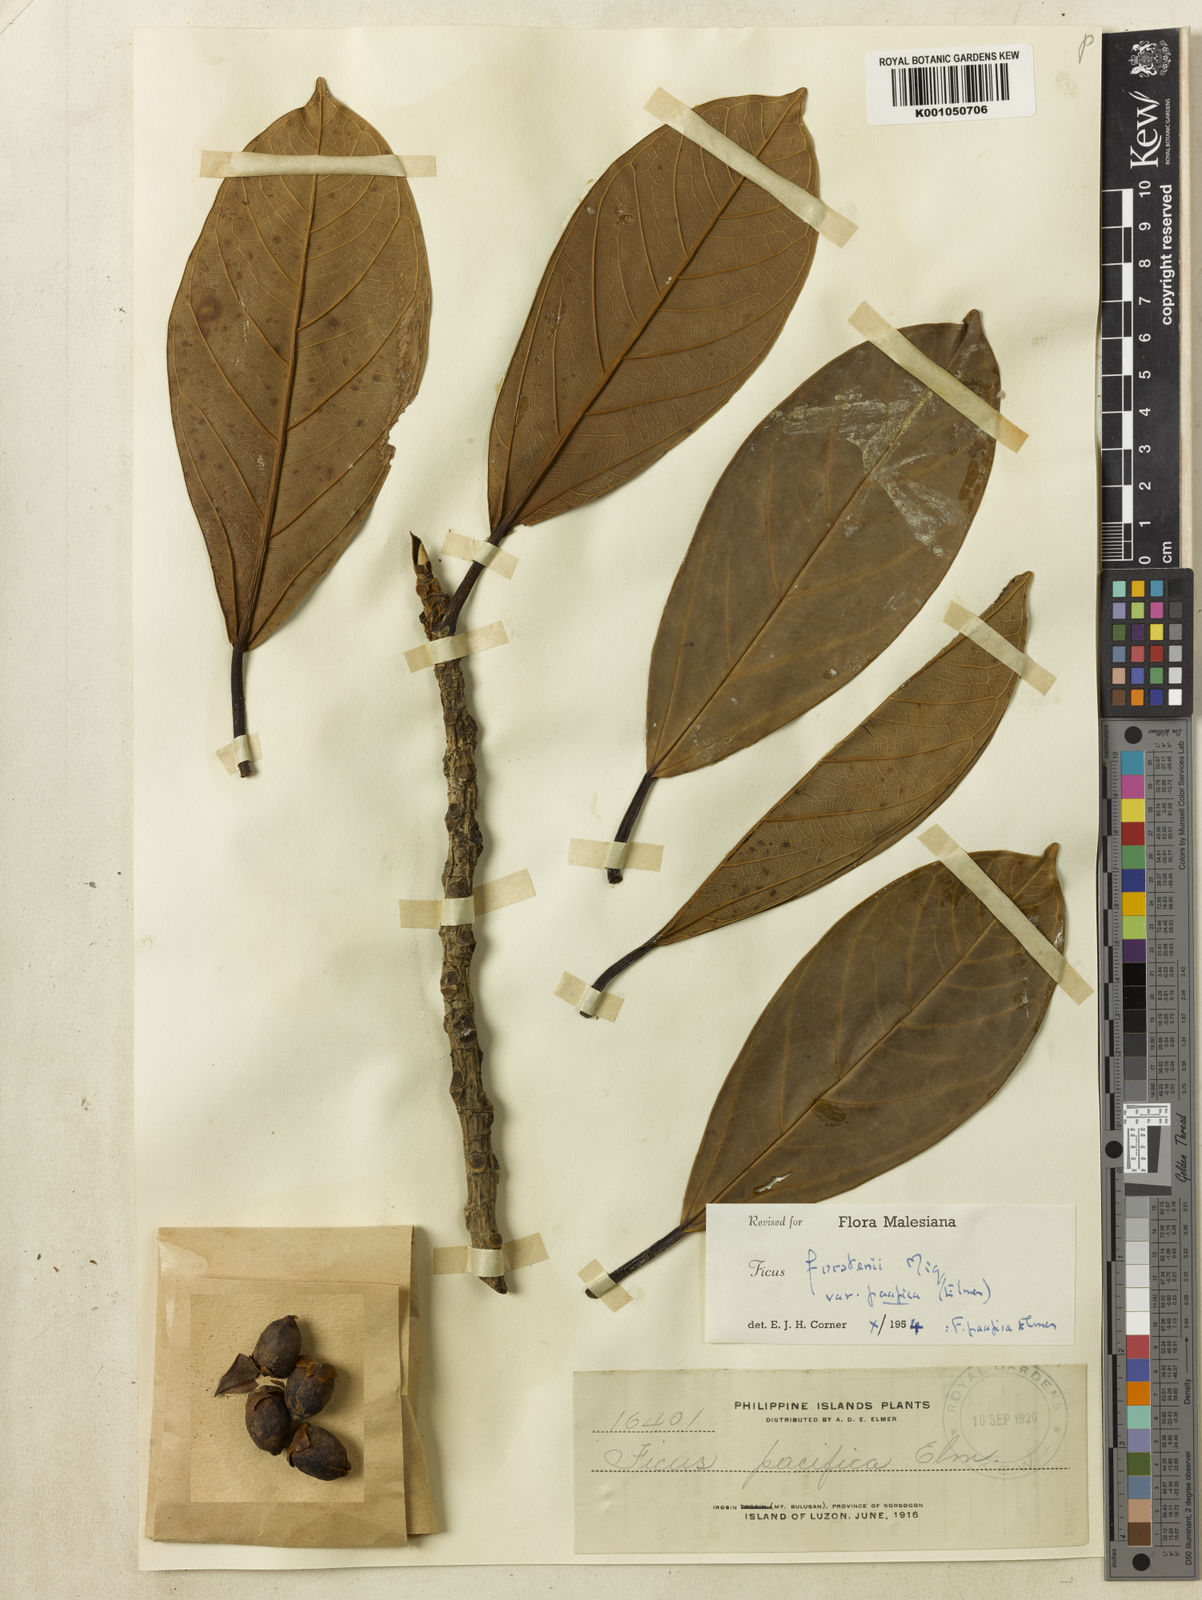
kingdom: Plantae
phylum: Tracheophyta
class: Magnoliopsida
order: Rosales
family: Moraceae
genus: Ficus
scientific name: Ficus forstenii
